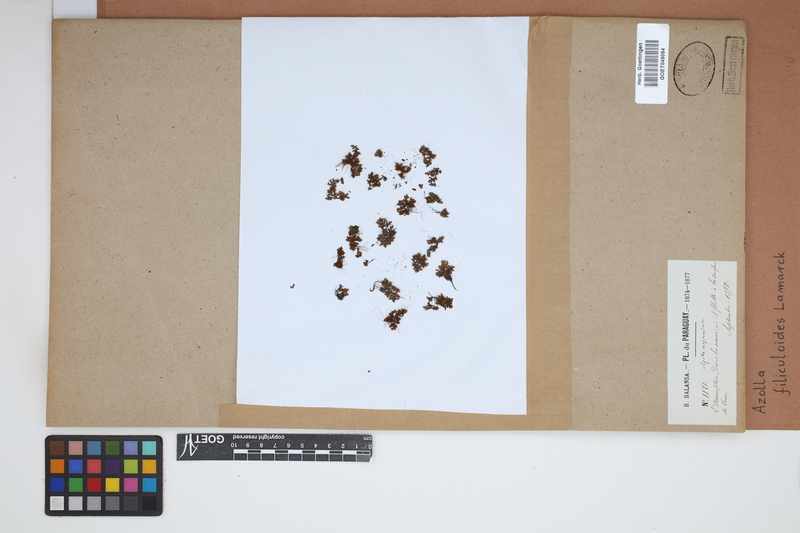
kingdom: Plantae
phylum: Tracheophyta
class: Polypodiopsida
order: Salviniales
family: Salviniaceae
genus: Azolla
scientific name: Azolla filiculoides
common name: Water fern
